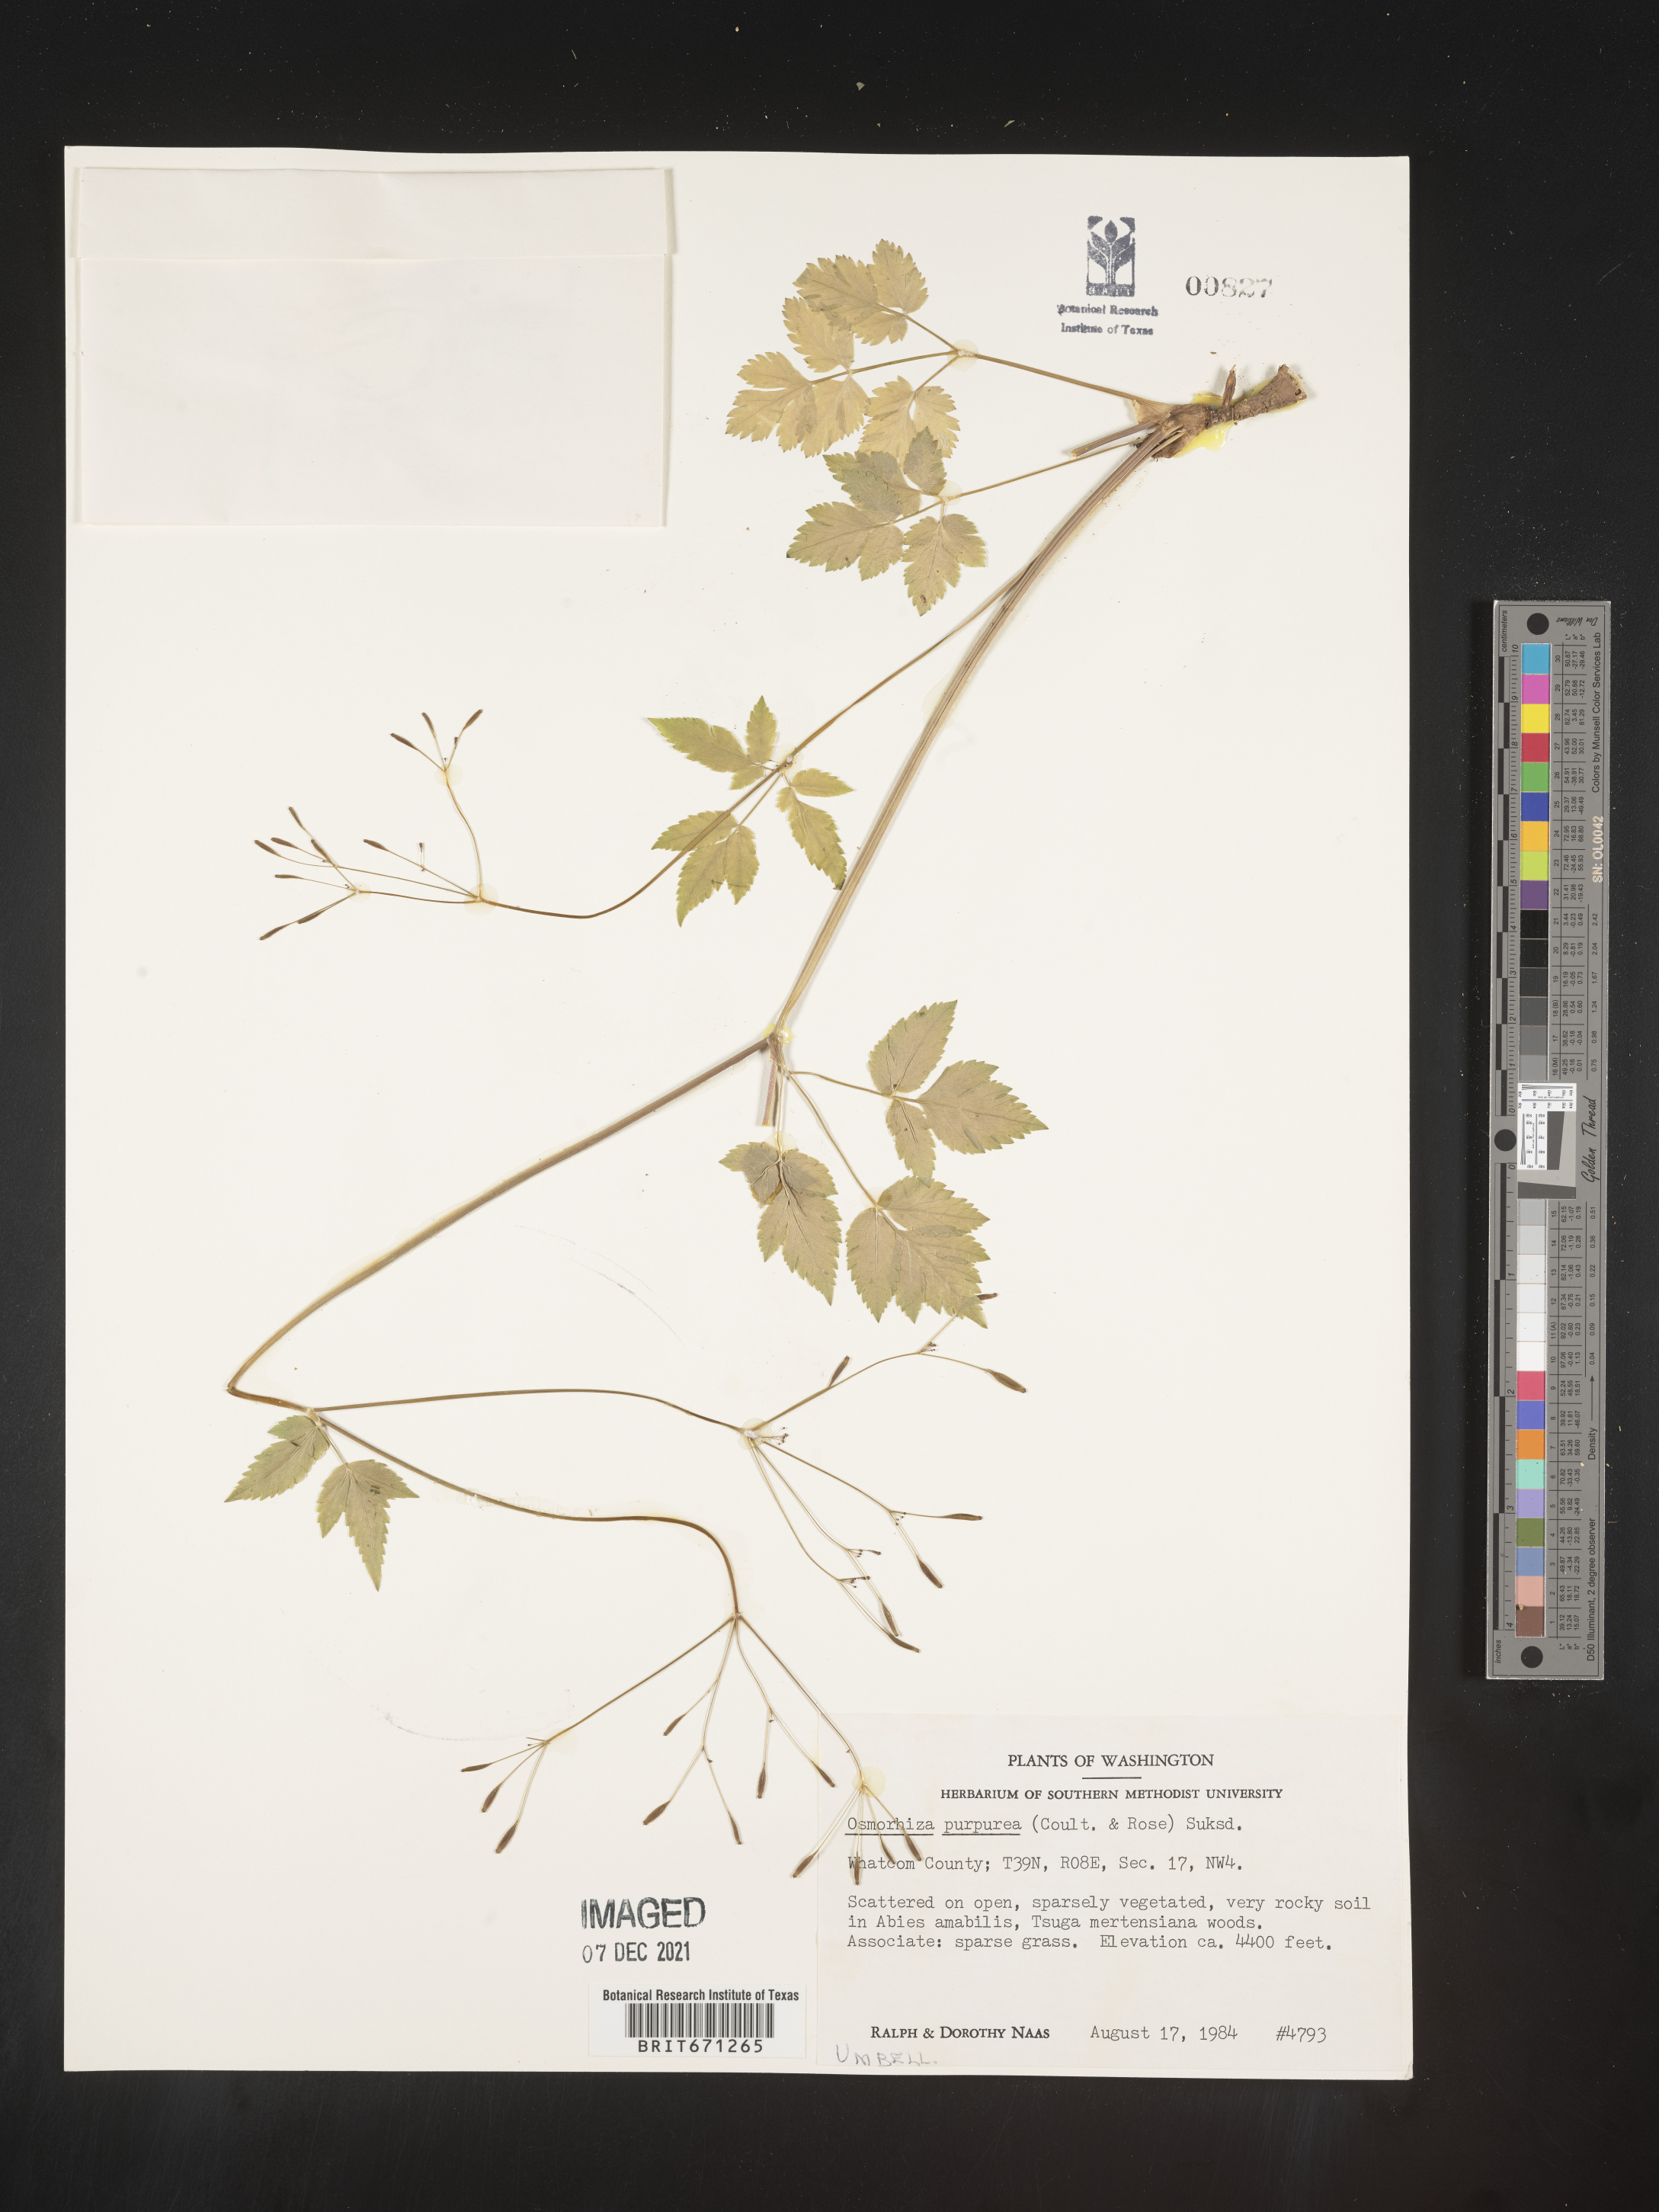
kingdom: Plantae
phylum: Tracheophyta
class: Magnoliopsida
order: Apiales
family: Apiaceae
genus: Osmorhiza
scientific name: Osmorhiza purpurea
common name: Purple sweet cicely
